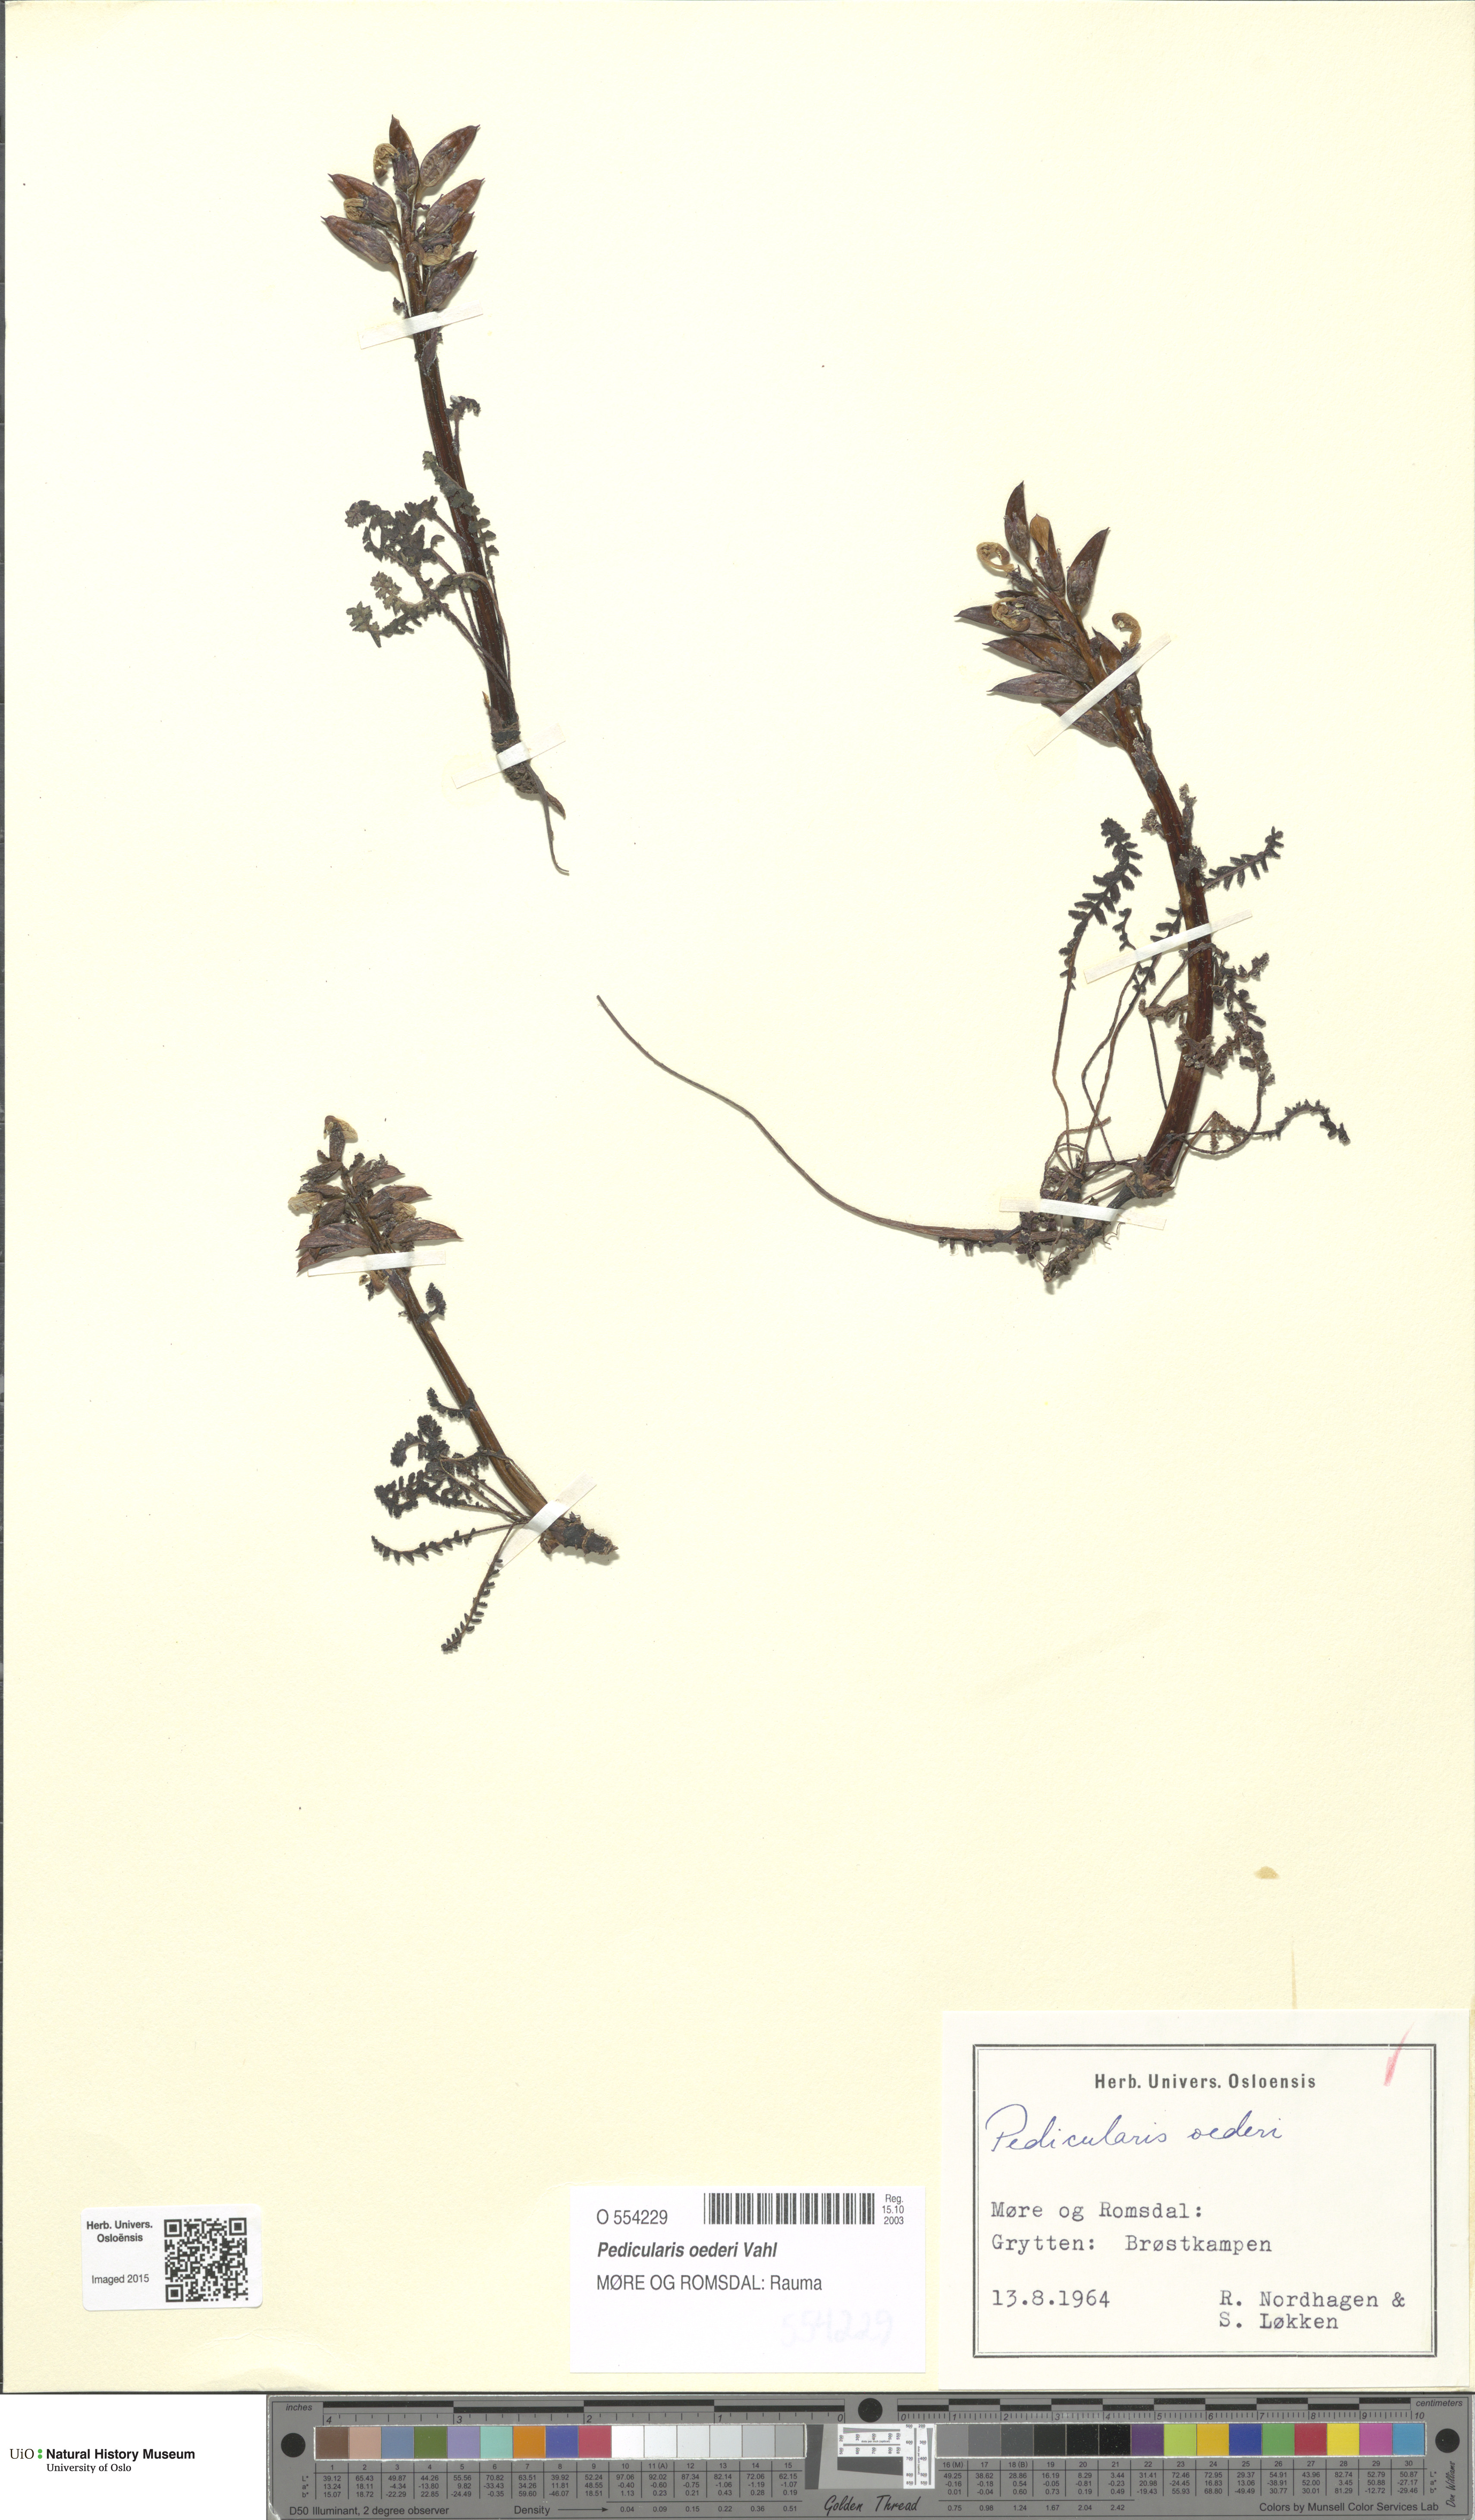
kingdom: Plantae
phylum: Tracheophyta
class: Magnoliopsida
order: Lamiales
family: Orobanchaceae
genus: Pedicularis
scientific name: Pedicularis oederi
